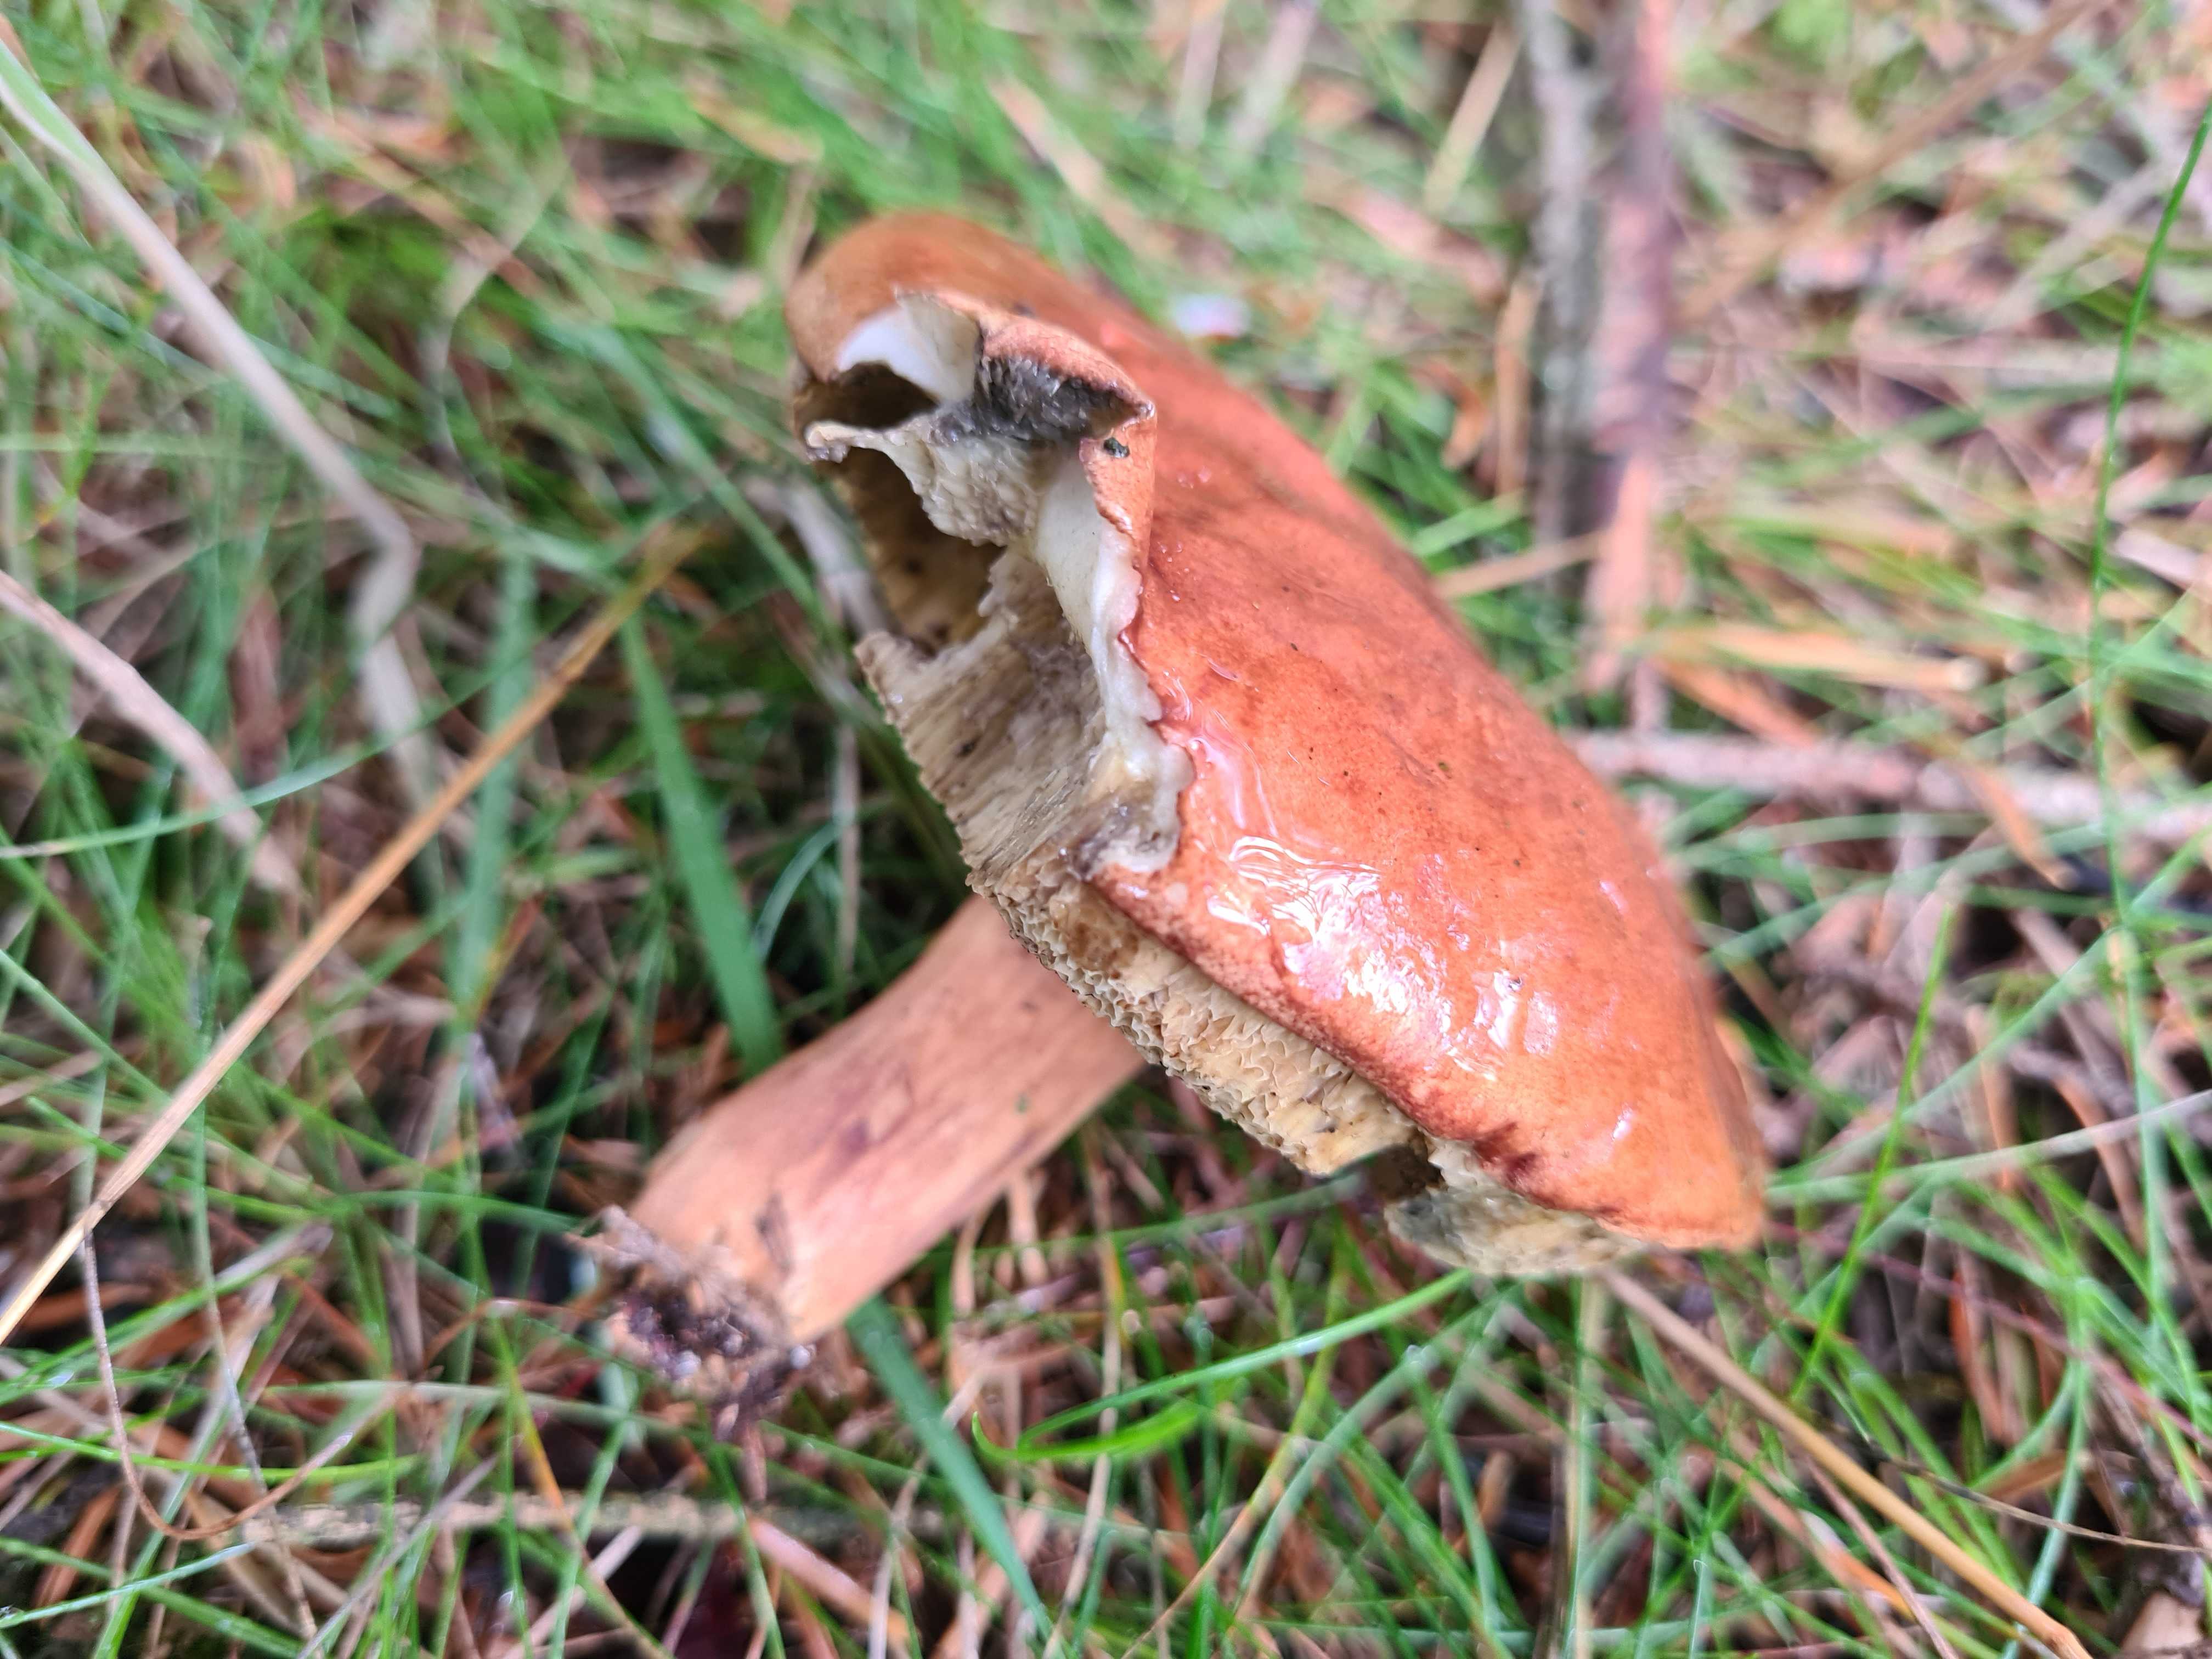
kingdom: Fungi
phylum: Basidiomycota
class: Agaricomycetes
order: Boletales
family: Boletaceae
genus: Imleria
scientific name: Imleria badia
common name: brunstokket rørhat
